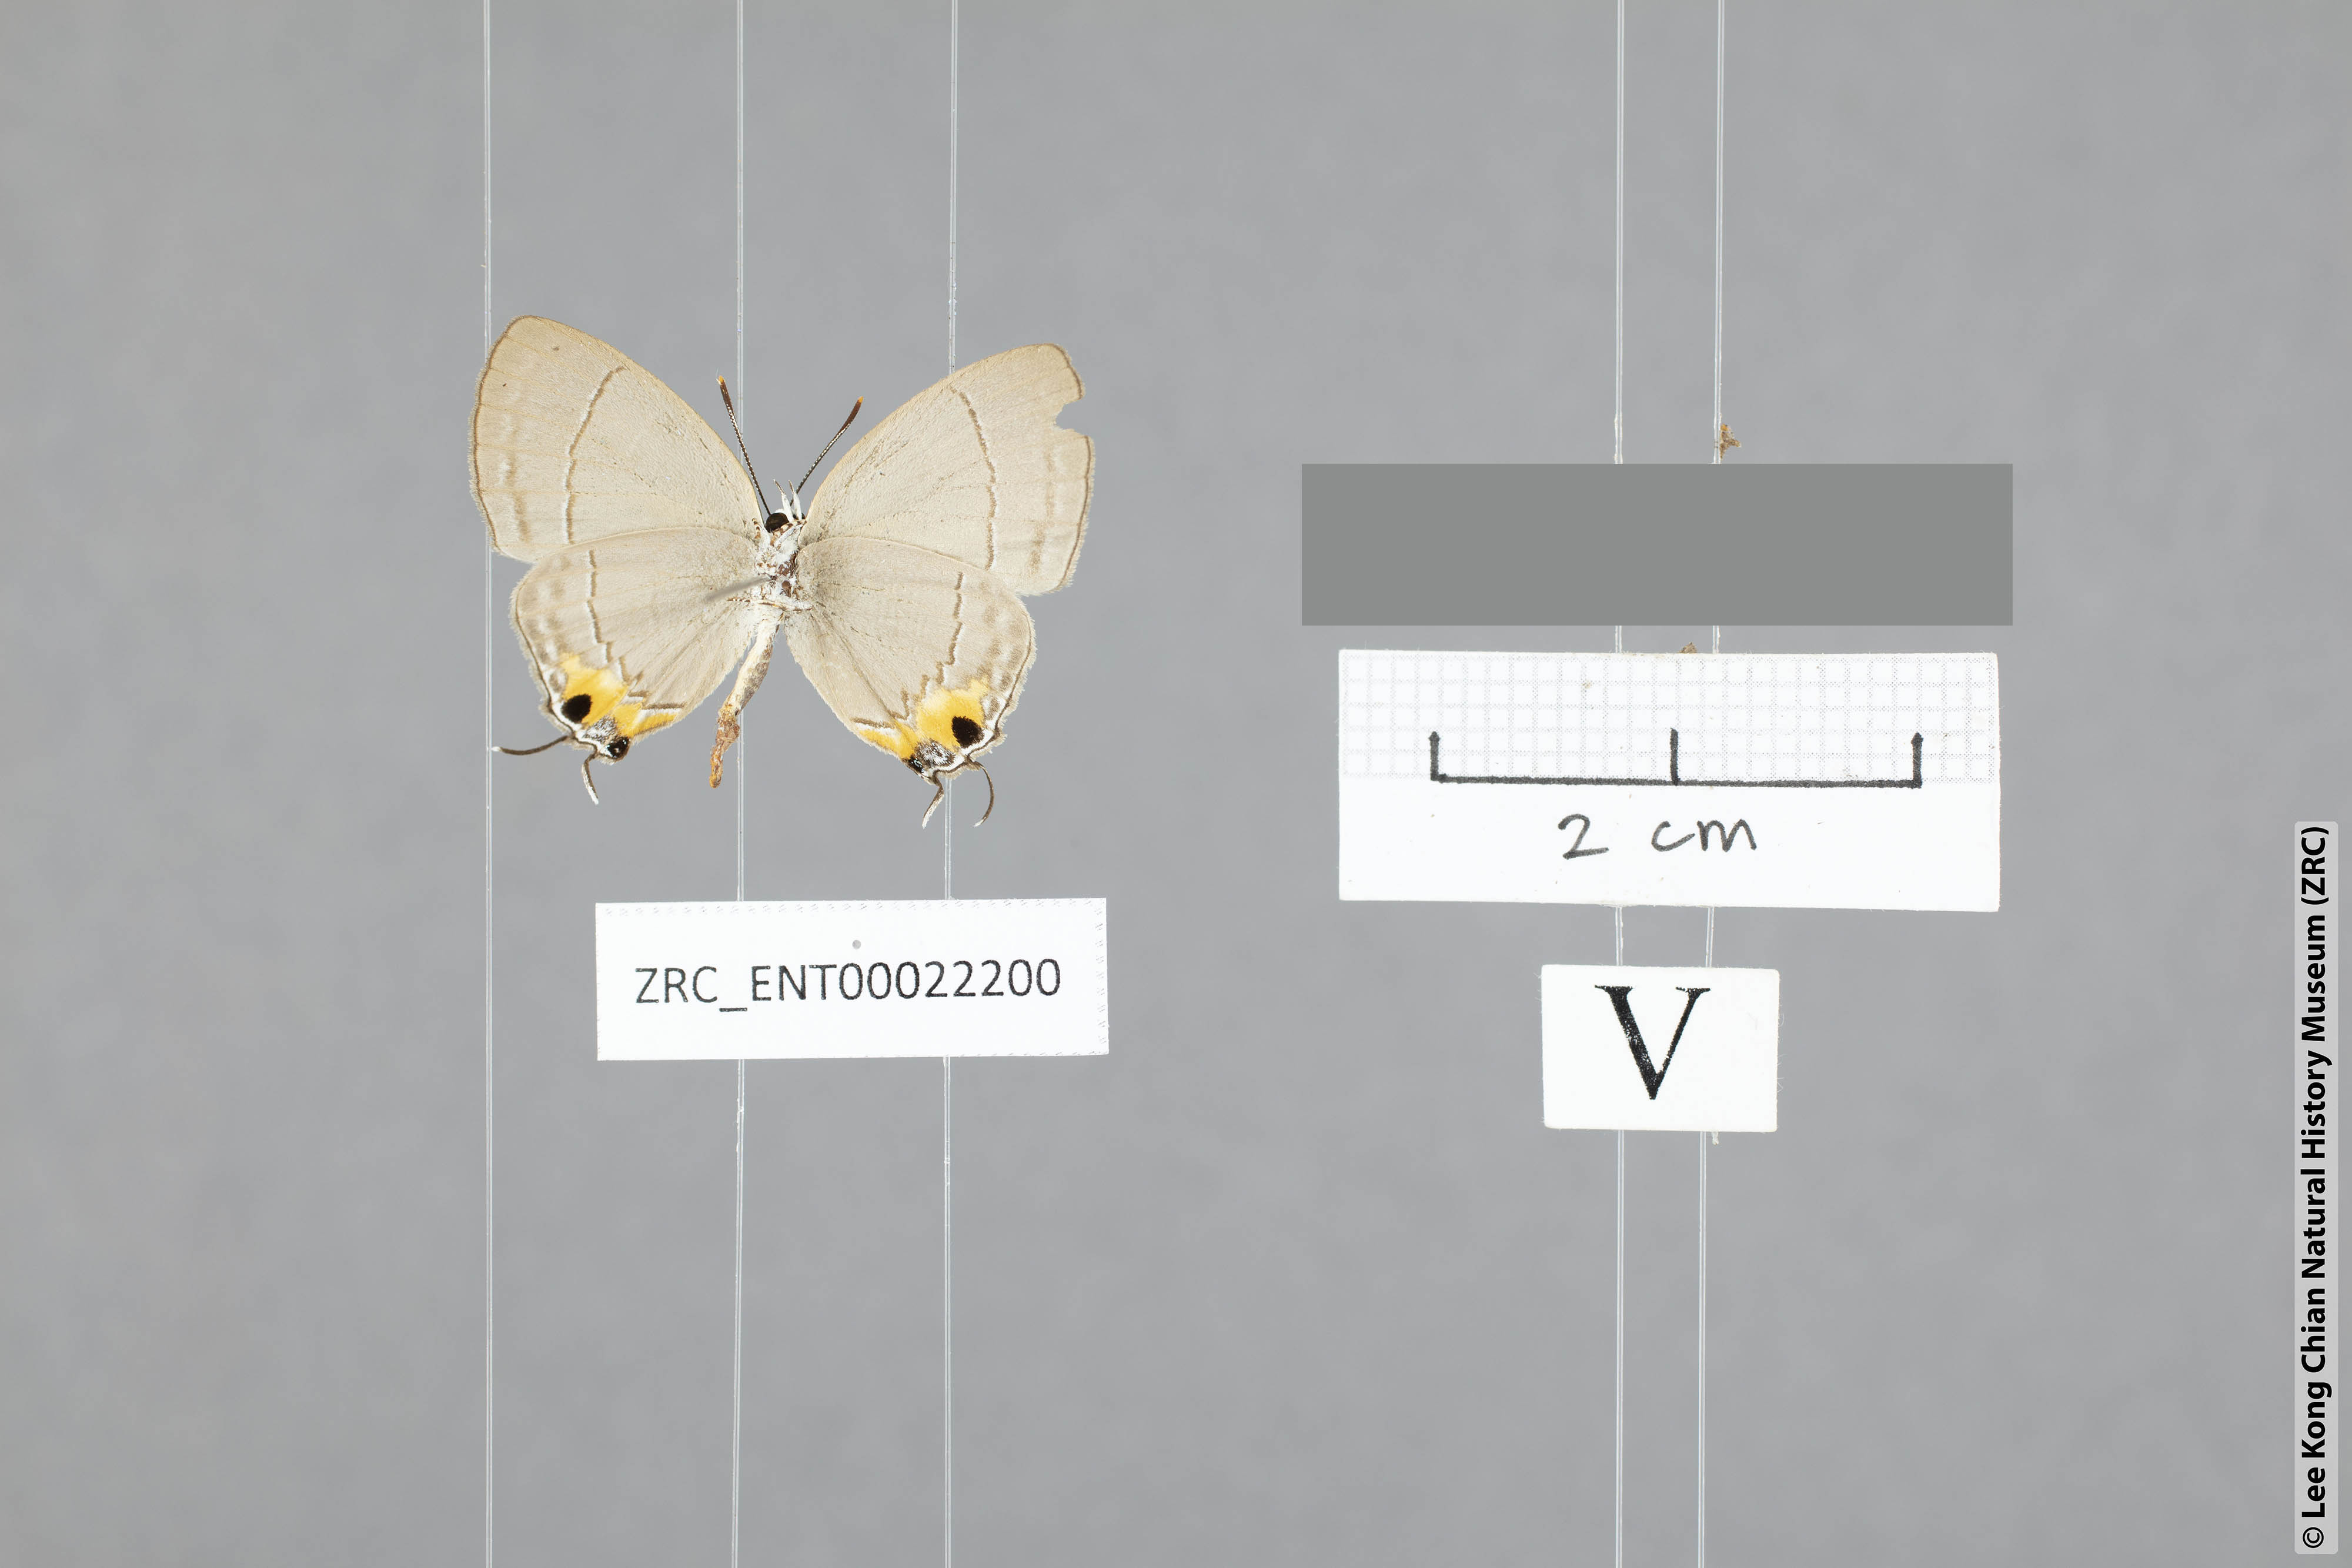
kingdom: Animalia
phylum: Arthropoda
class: Insecta
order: Lepidoptera
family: Lycaenidae
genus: Tajuria
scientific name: Tajuria isaeus
